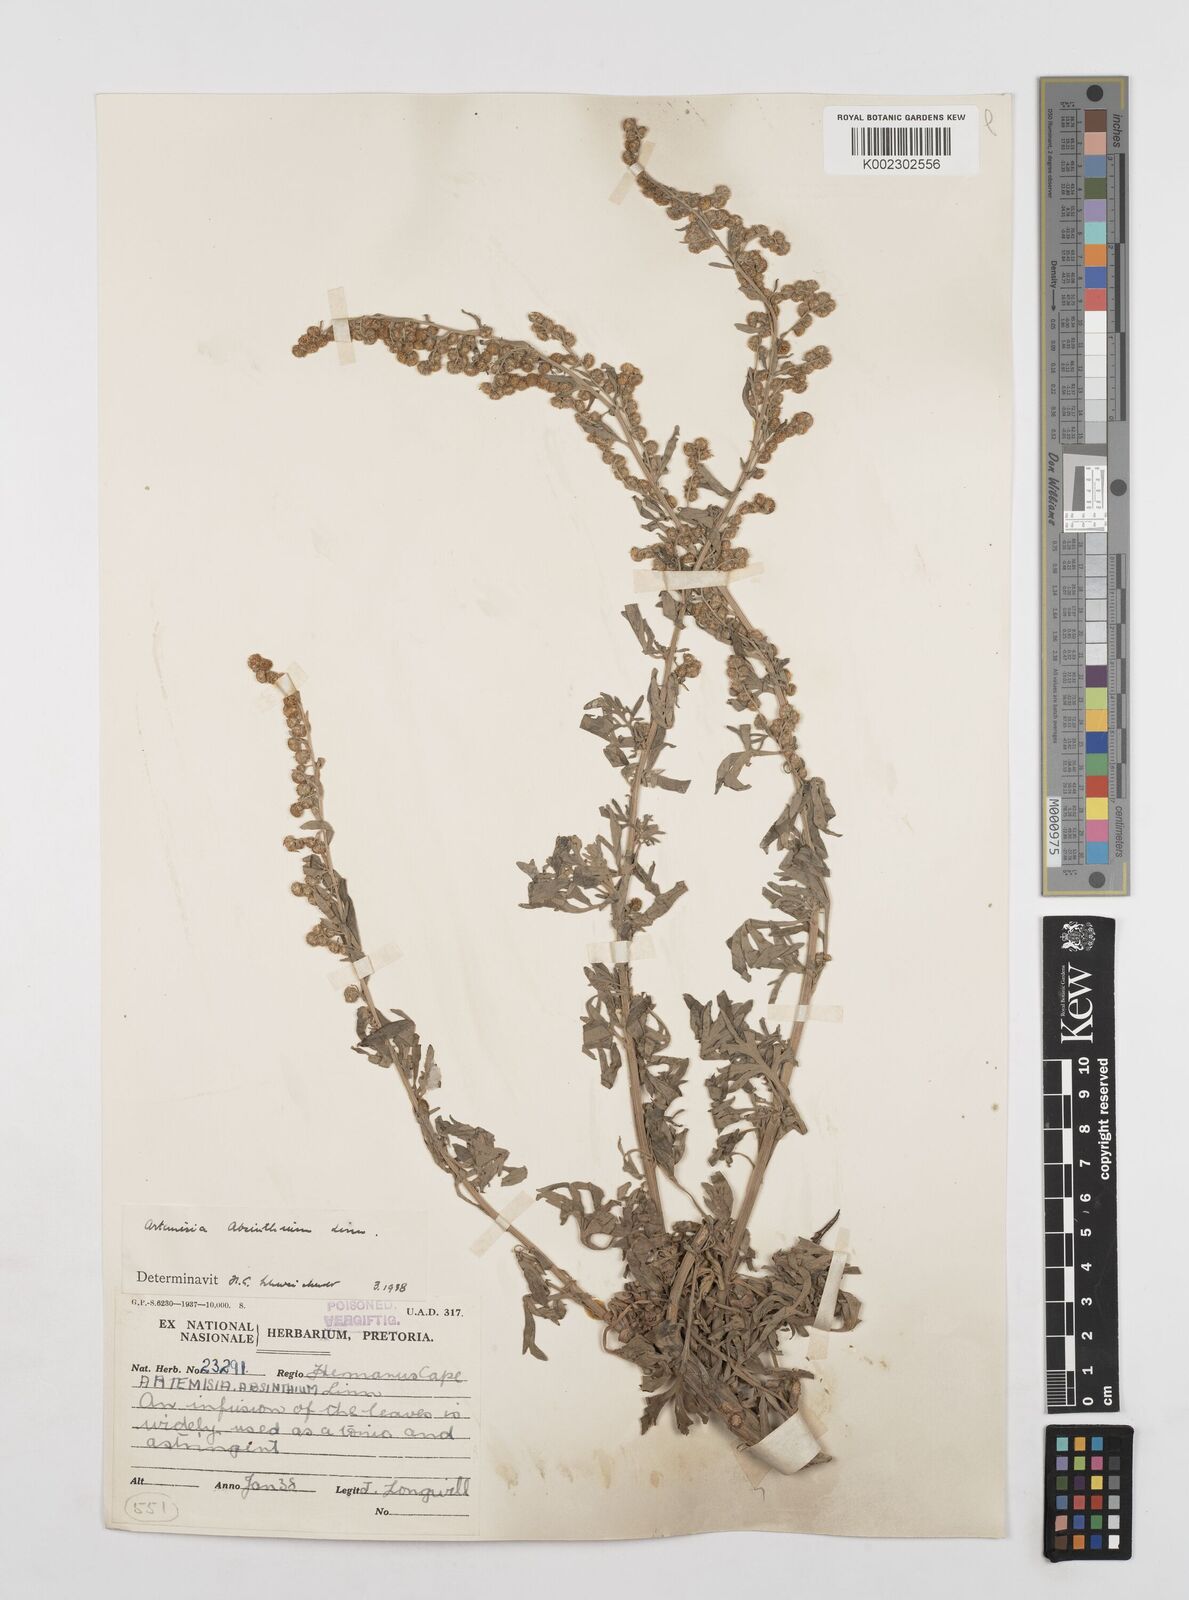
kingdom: Plantae
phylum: Tracheophyta
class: Magnoliopsida
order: Asterales
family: Asteraceae
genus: Artemisia
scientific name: Artemisia absinthium
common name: Wormwood
